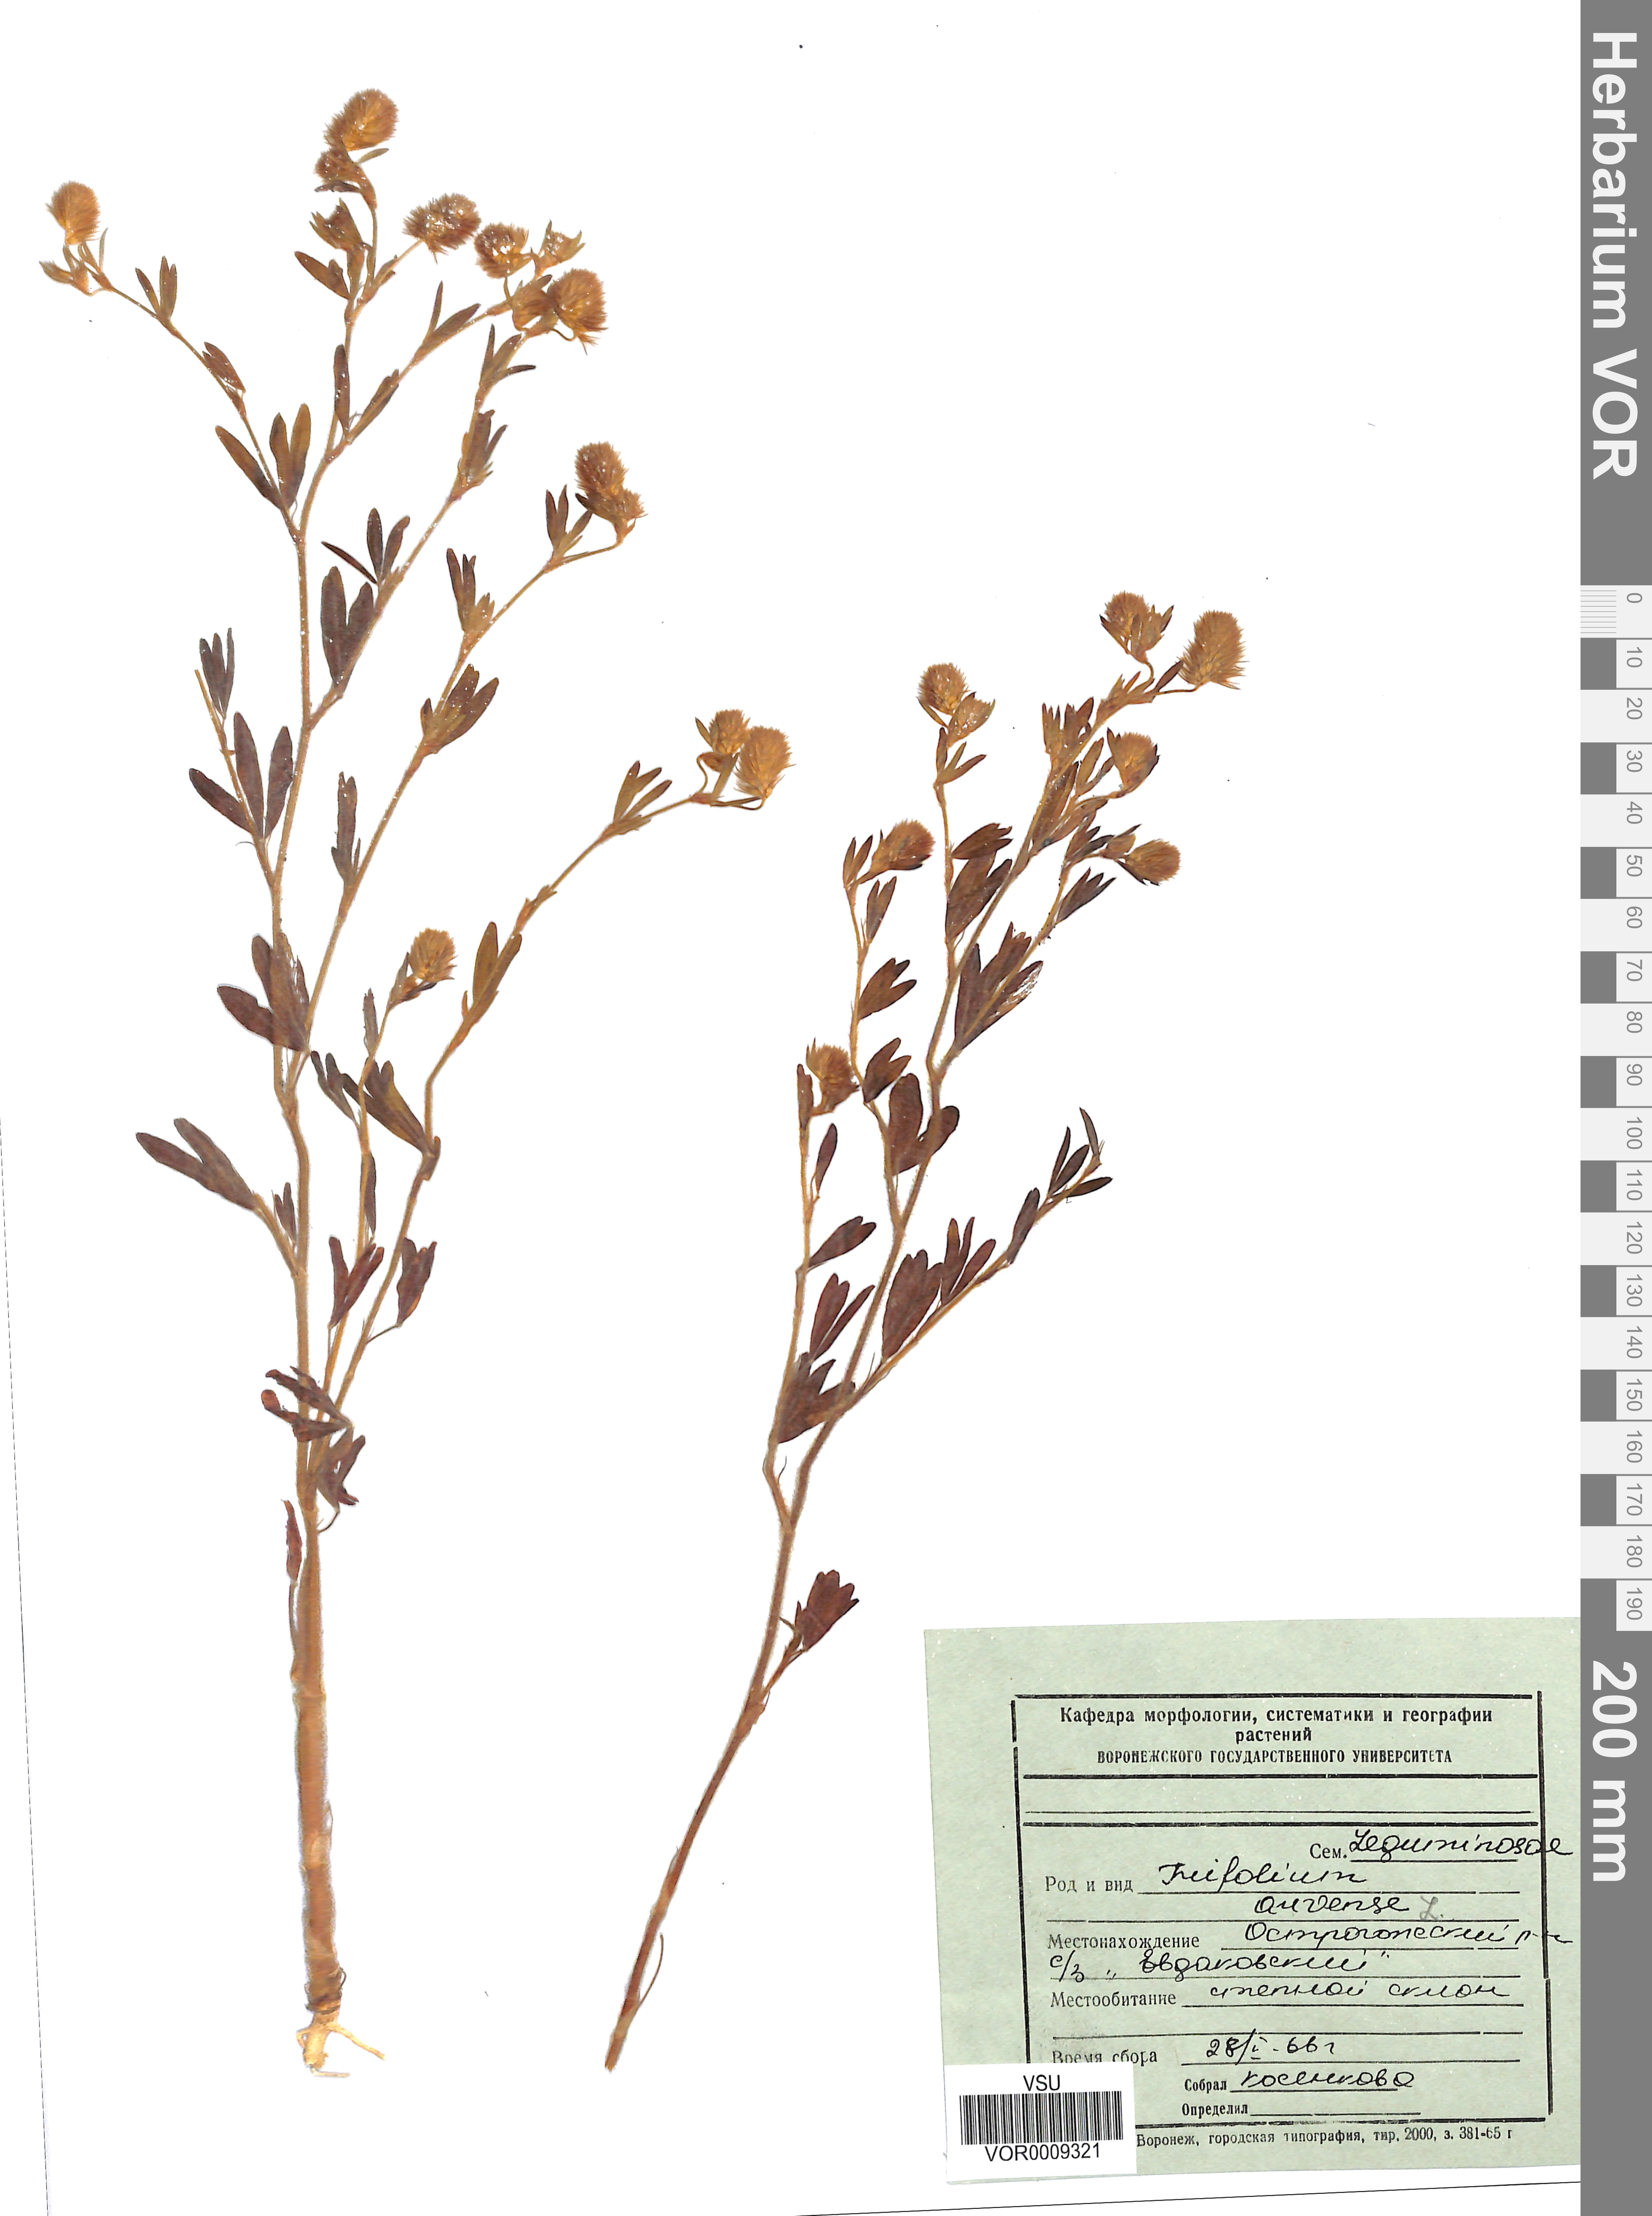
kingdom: Plantae
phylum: Tracheophyta
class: Magnoliopsida
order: Fabales
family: Fabaceae
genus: Trifolium
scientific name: Trifolium arvense
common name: Hare's-foot clover
